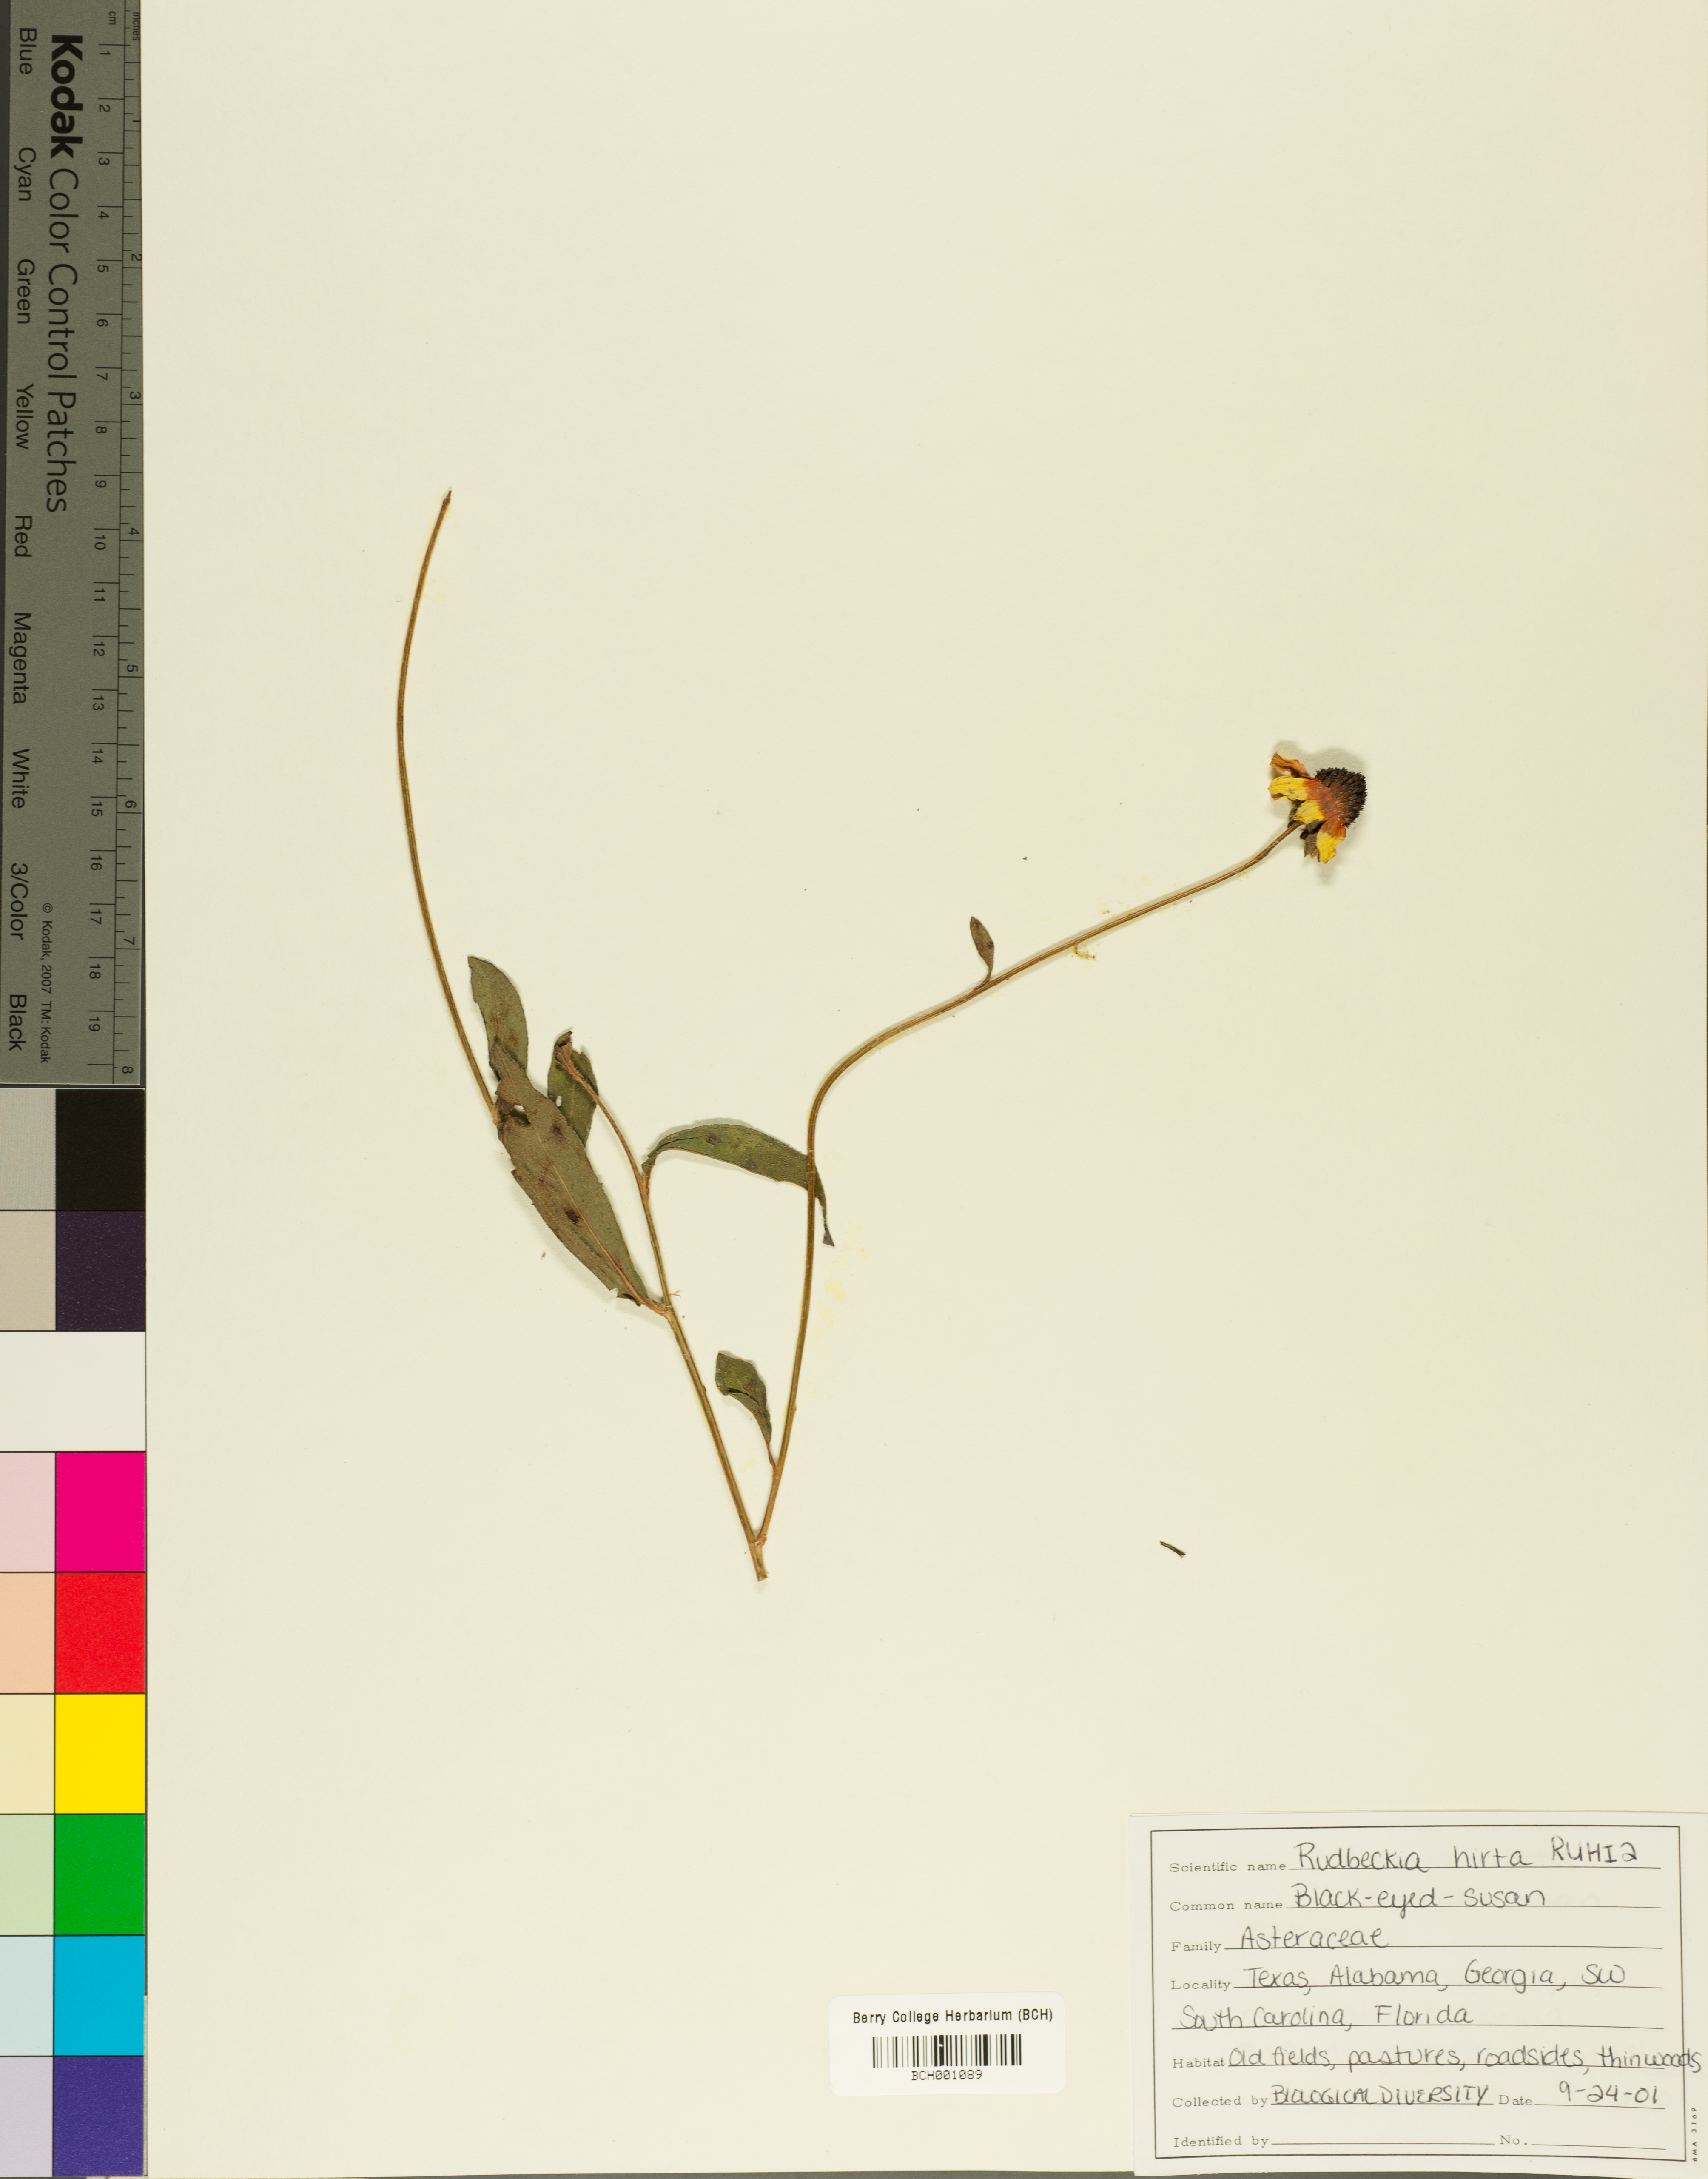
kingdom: Plantae
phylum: Tracheophyta
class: Magnoliopsida
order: Asterales
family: Asteraceae
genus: Rudbeckia
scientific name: Rudbeckia hirta
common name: Black-eyed-susan
